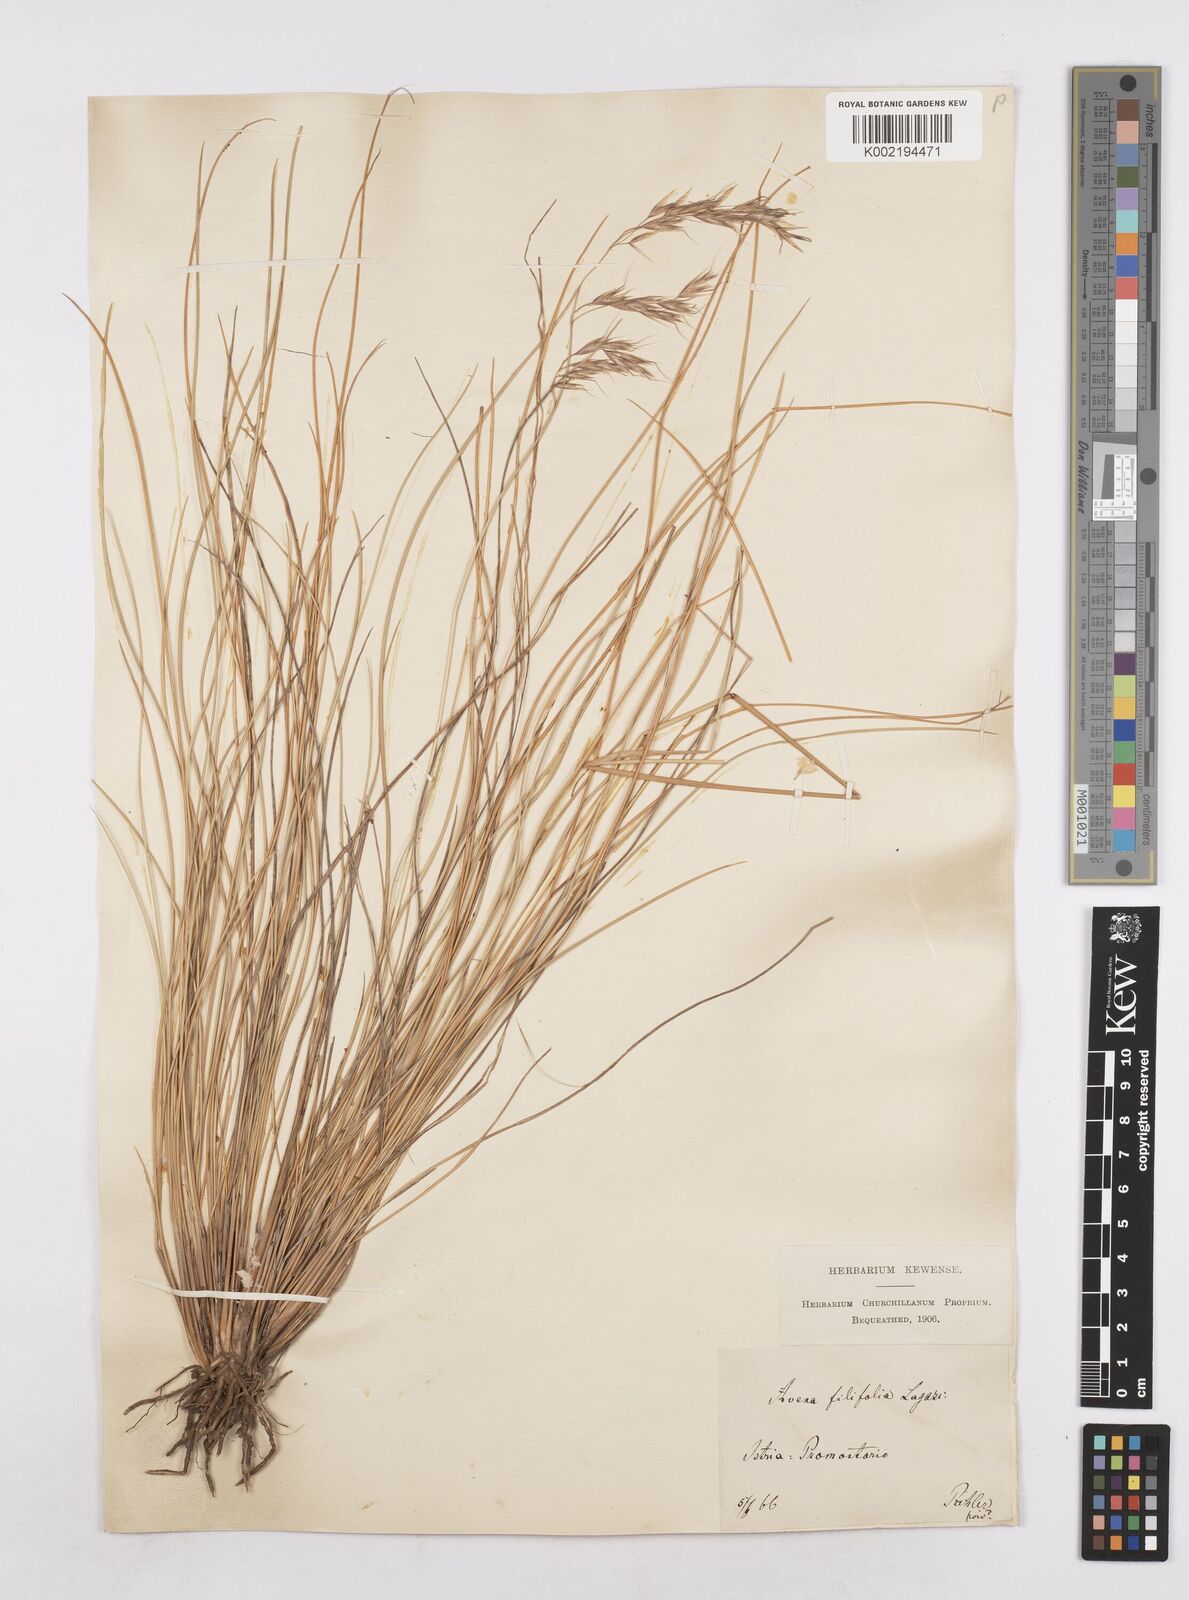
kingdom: Plantae
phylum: Tracheophyta
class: Liliopsida
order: Poales
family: Poaceae
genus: Helictotrichon
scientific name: Helictotrichon convolutum
